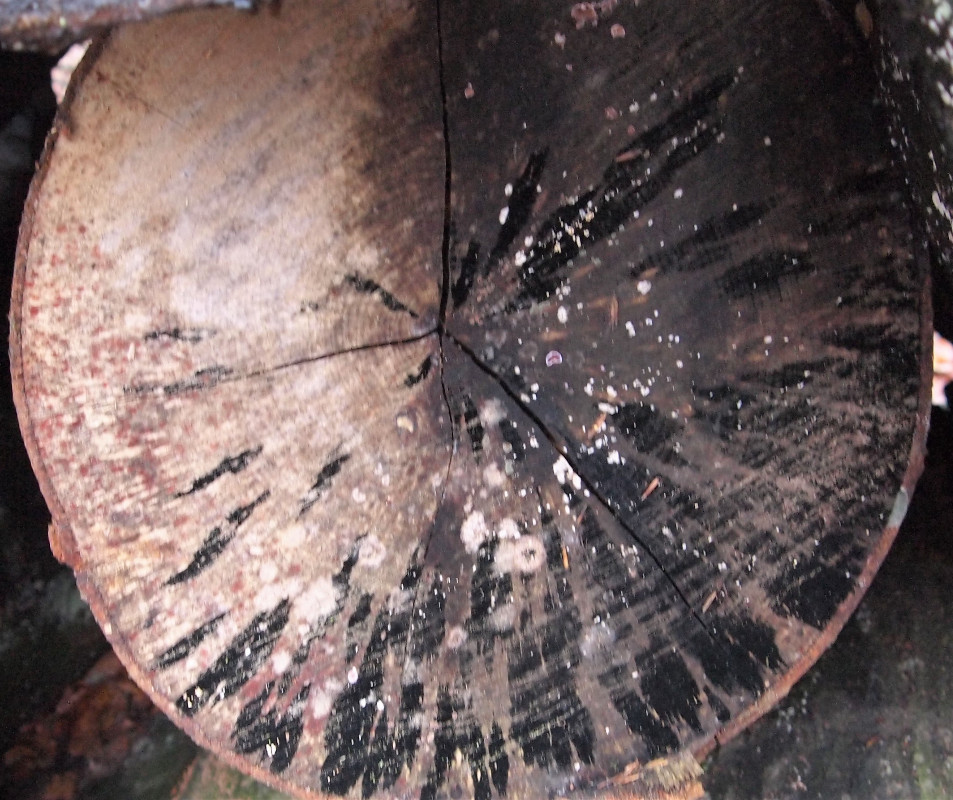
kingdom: Fungi
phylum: Ascomycota
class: Leotiomycetes
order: Helotiales
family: Helotiaceae
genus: Bispora
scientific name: Bispora pallescens
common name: måtte-snitskive
